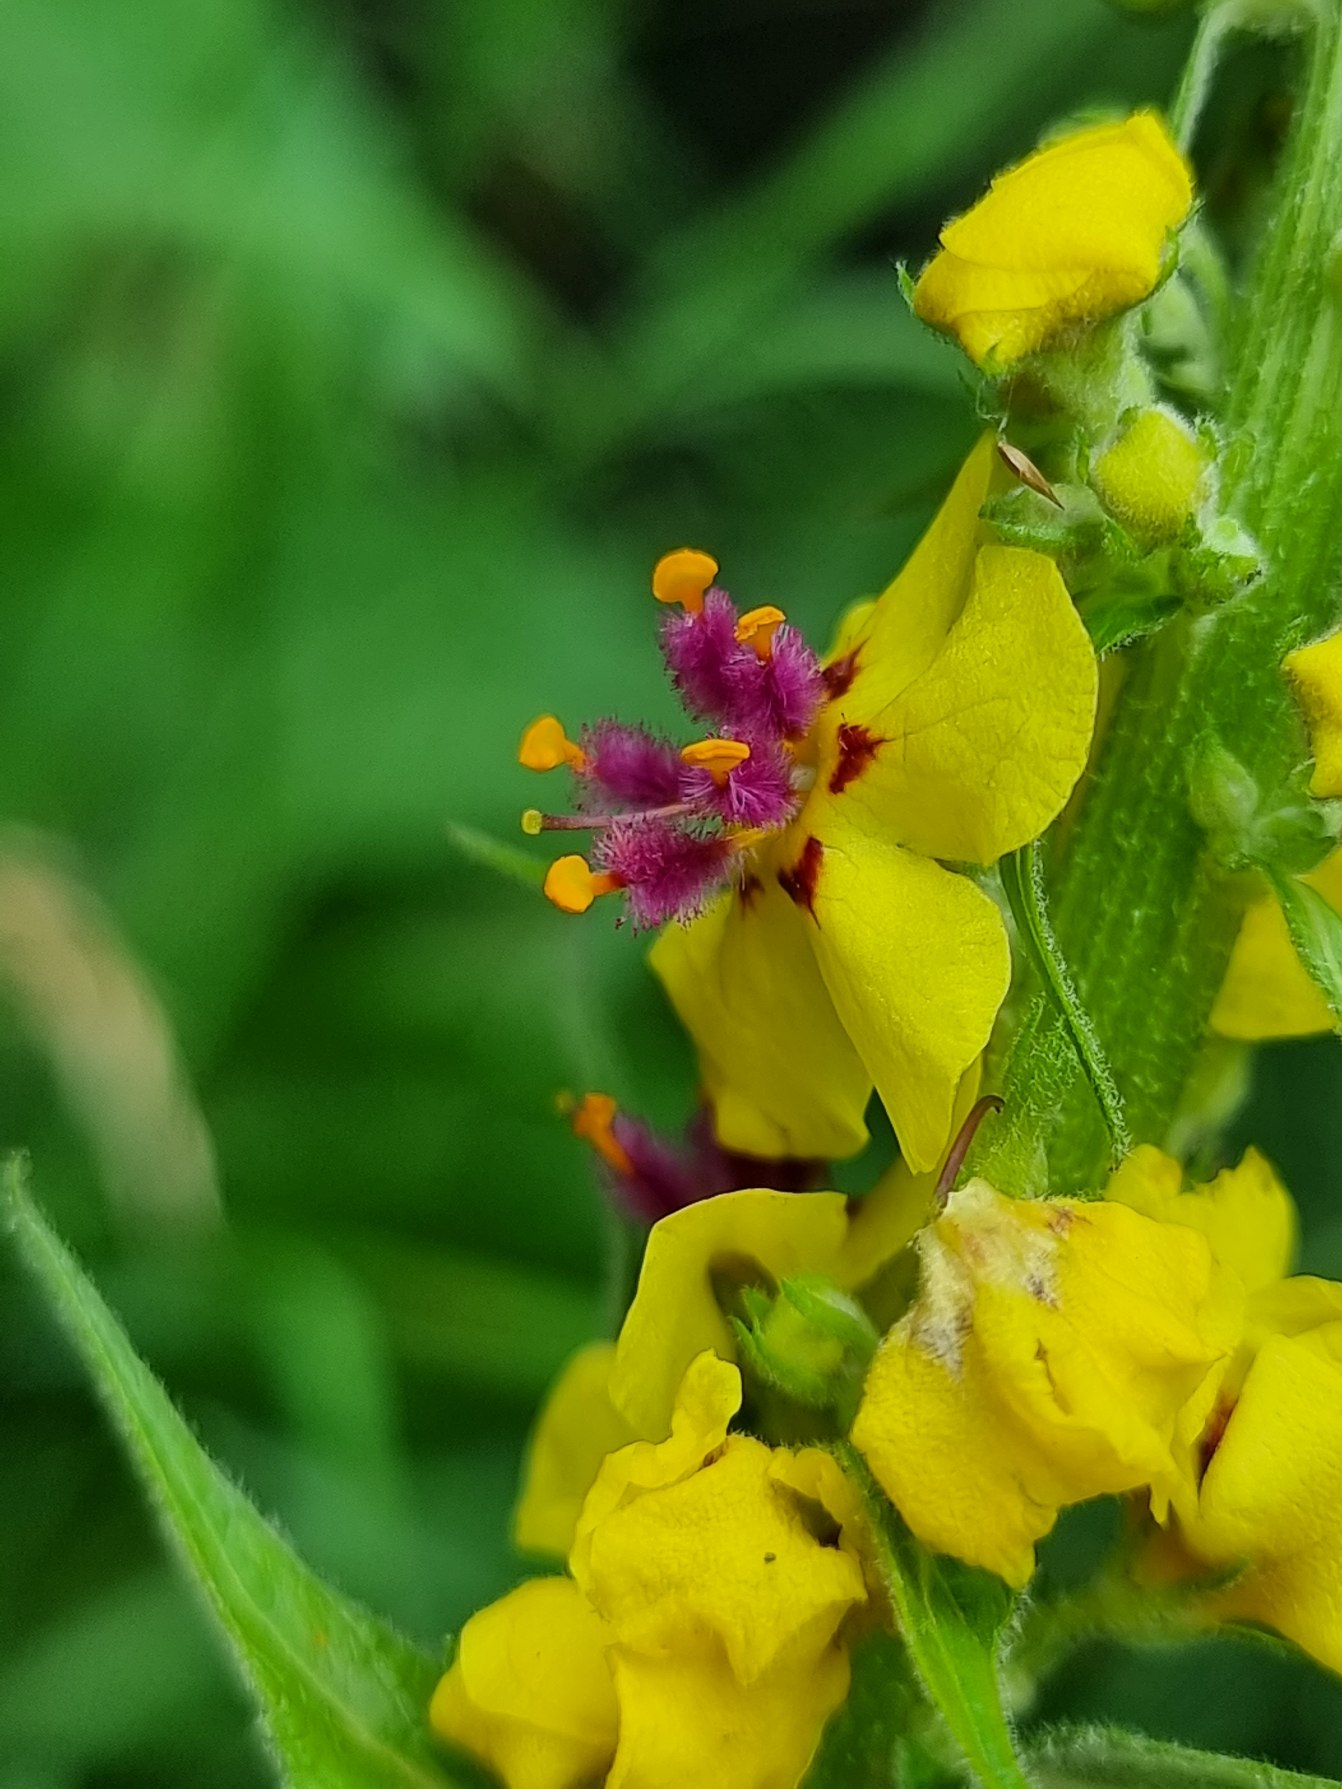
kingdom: Plantae
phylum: Tracheophyta
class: Magnoliopsida
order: Lamiales
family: Scrophulariaceae
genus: Verbascum
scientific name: Verbascum nigrum
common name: Mørk kongelys
